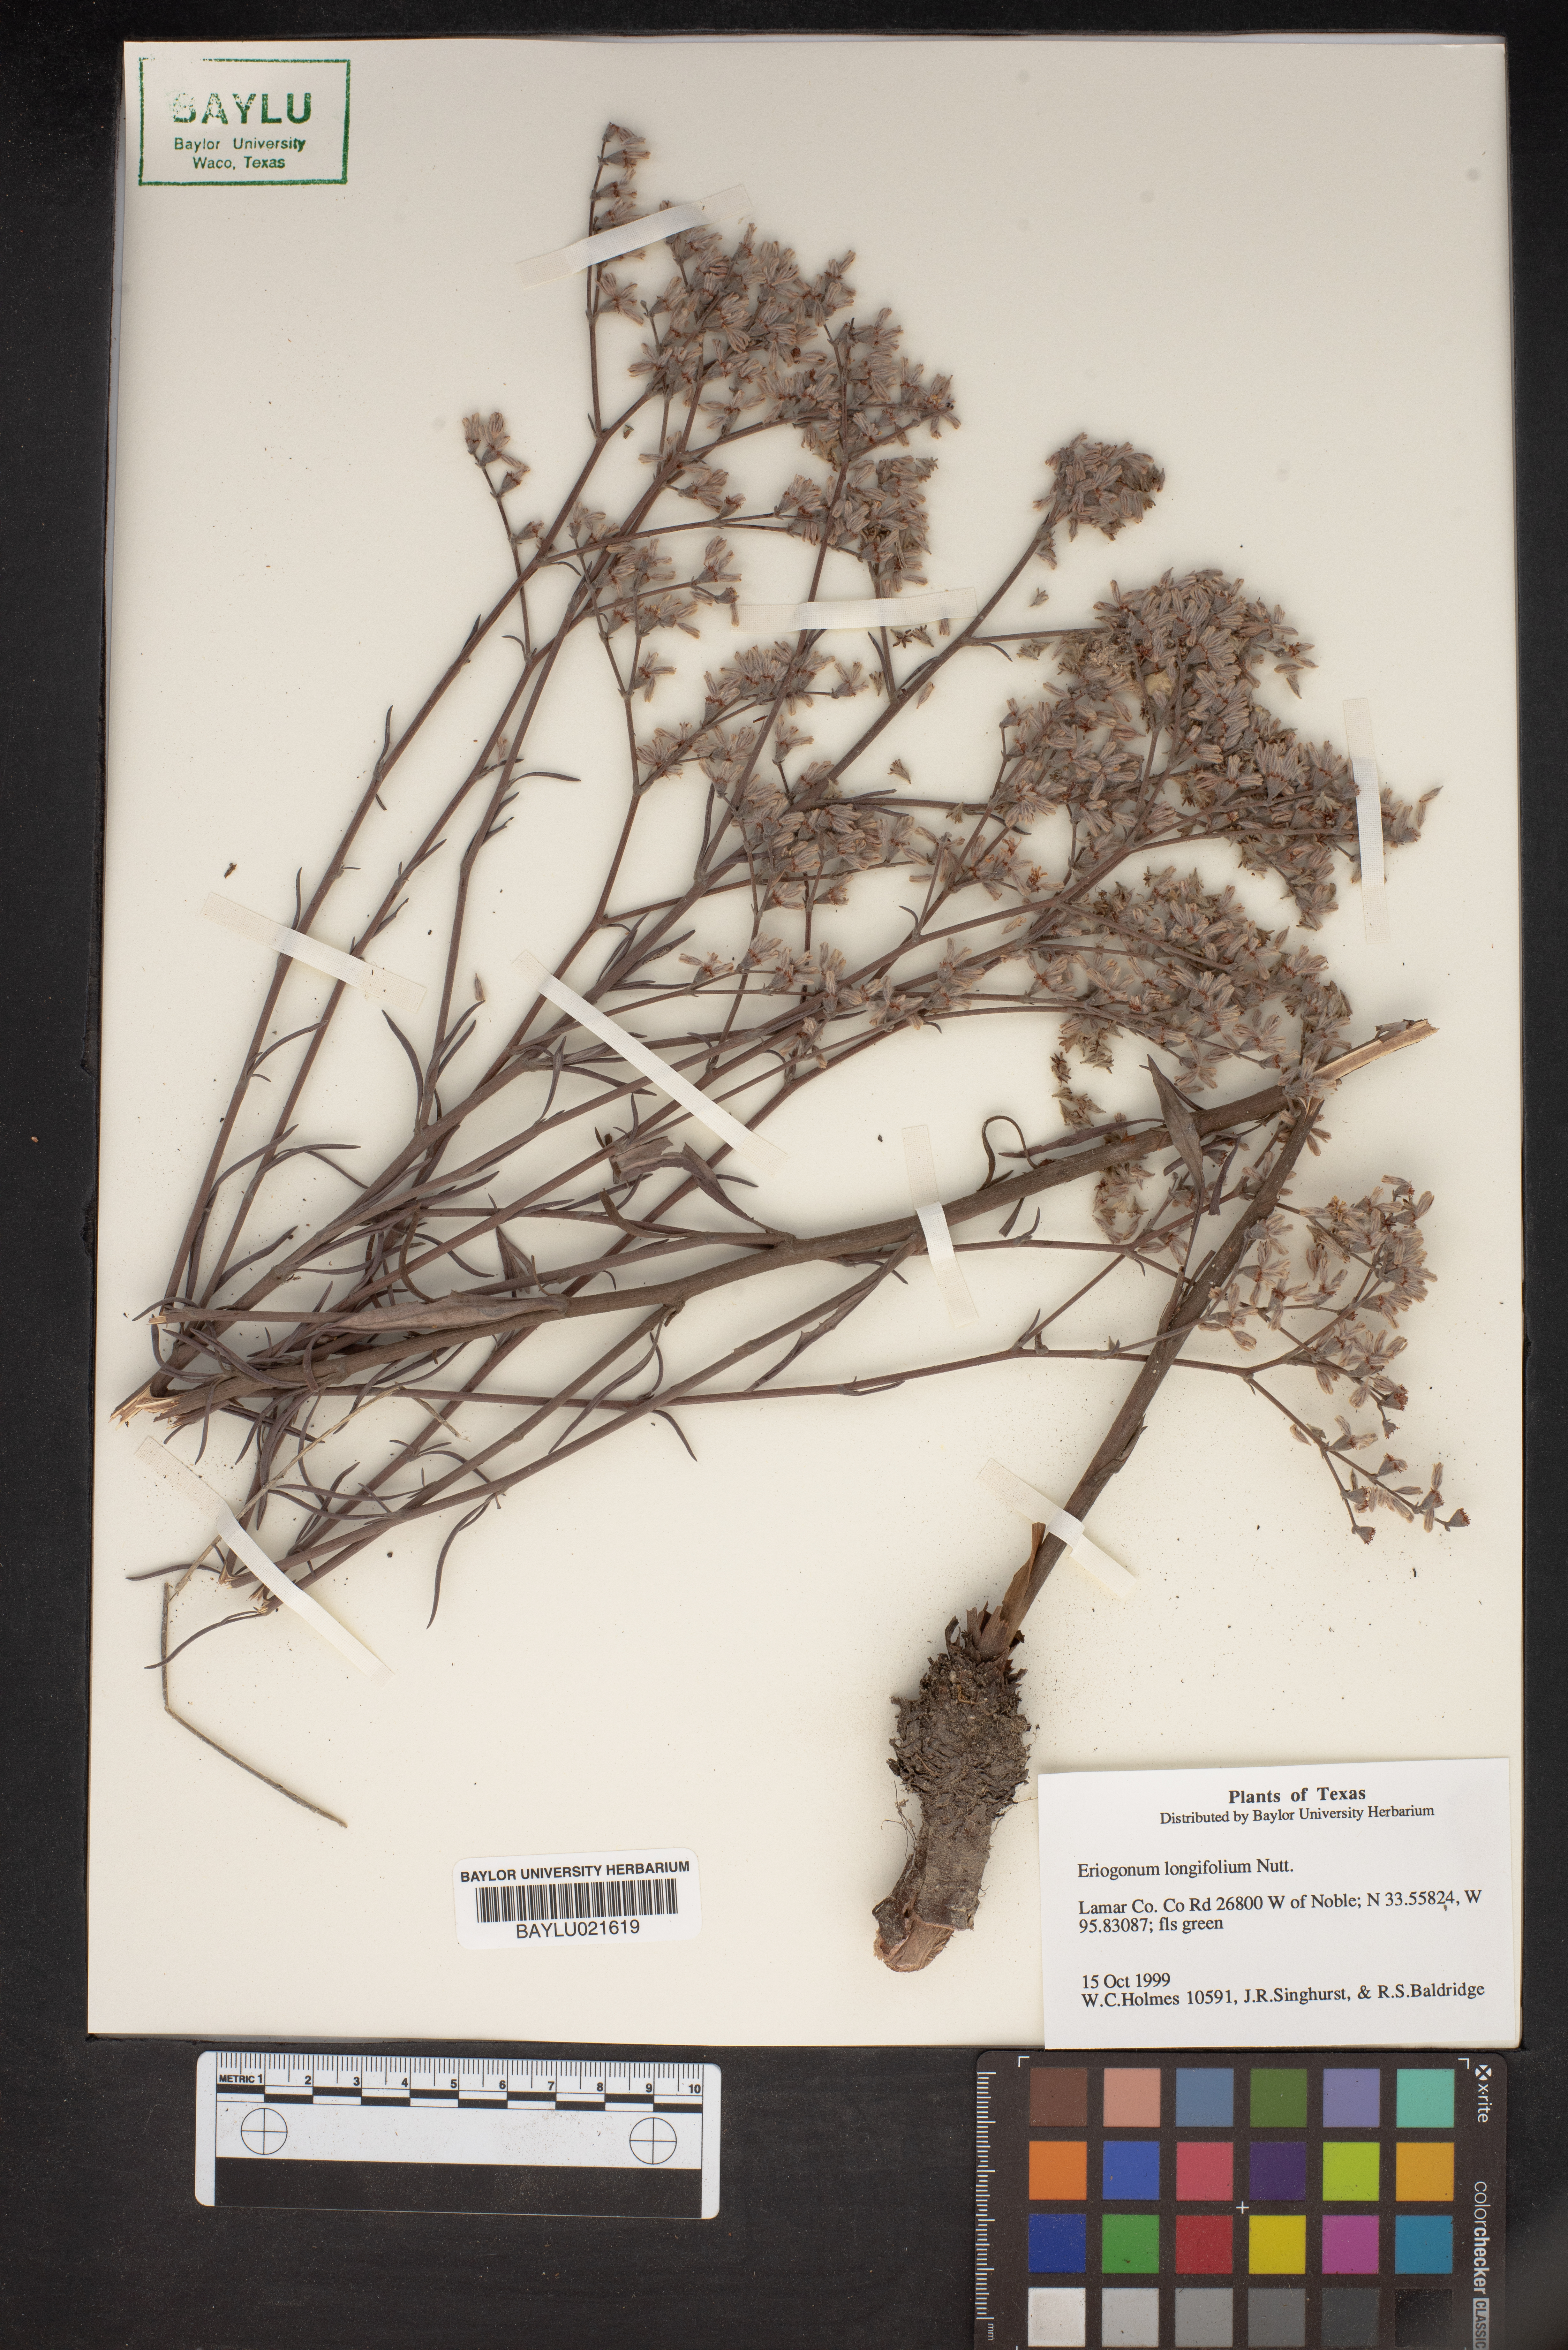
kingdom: Plantae
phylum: Tracheophyta
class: Magnoliopsida
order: Caryophyllales
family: Polygonaceae
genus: Eriogonum
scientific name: Eriogonum longifolium
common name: Longleaf wild buckwheat
